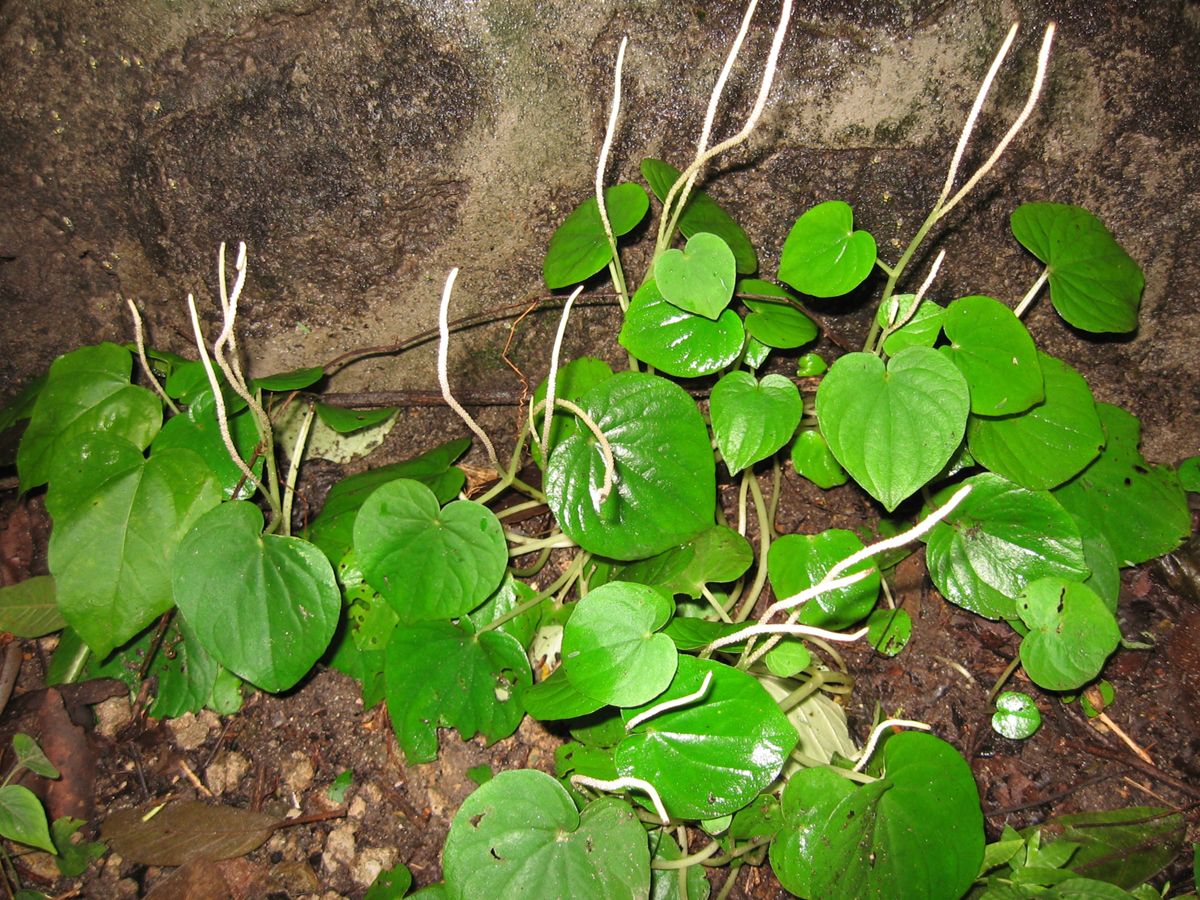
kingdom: Plantae
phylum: Tracheophyta
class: Magnoliopsida
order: Piperales
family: Piperaceae
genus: Peperomia
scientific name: Peperomia
